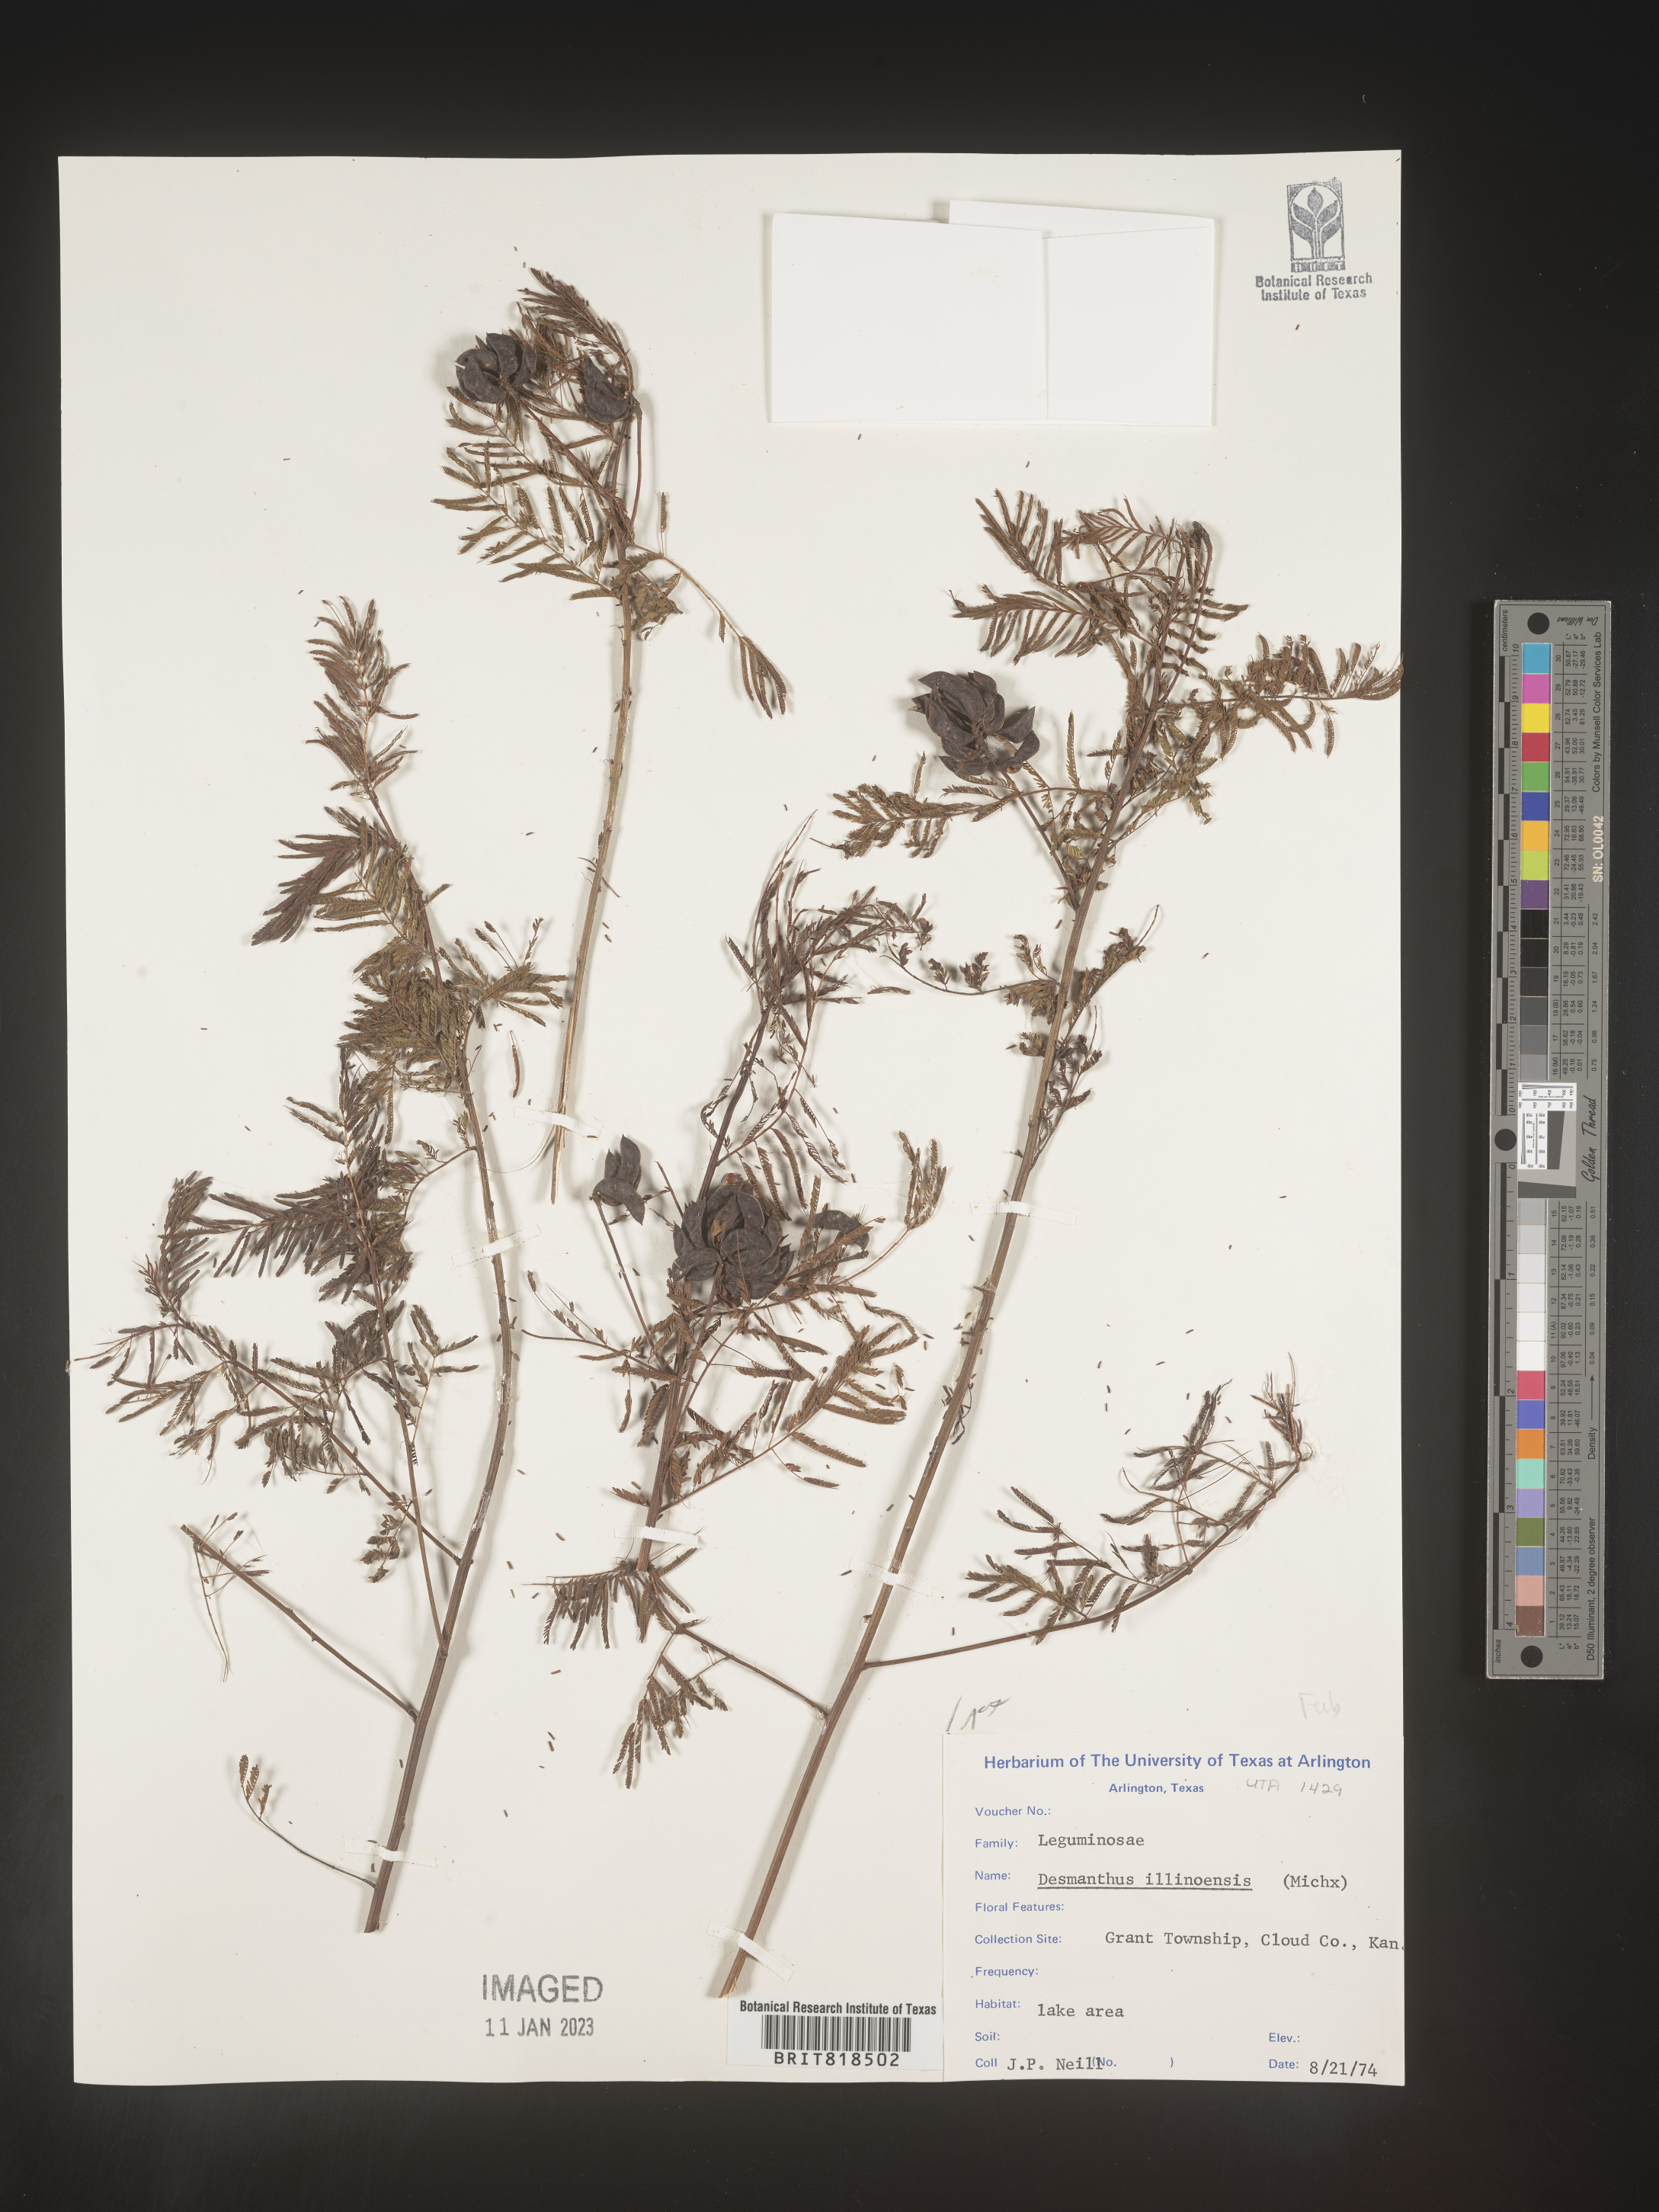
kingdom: Plantae
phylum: Tracheophyta
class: Magnoliopsida
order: Fabales
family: Fabaceae
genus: Desmanthus
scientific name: Desmanthus illinoensis
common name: Illinois bundle-flower
